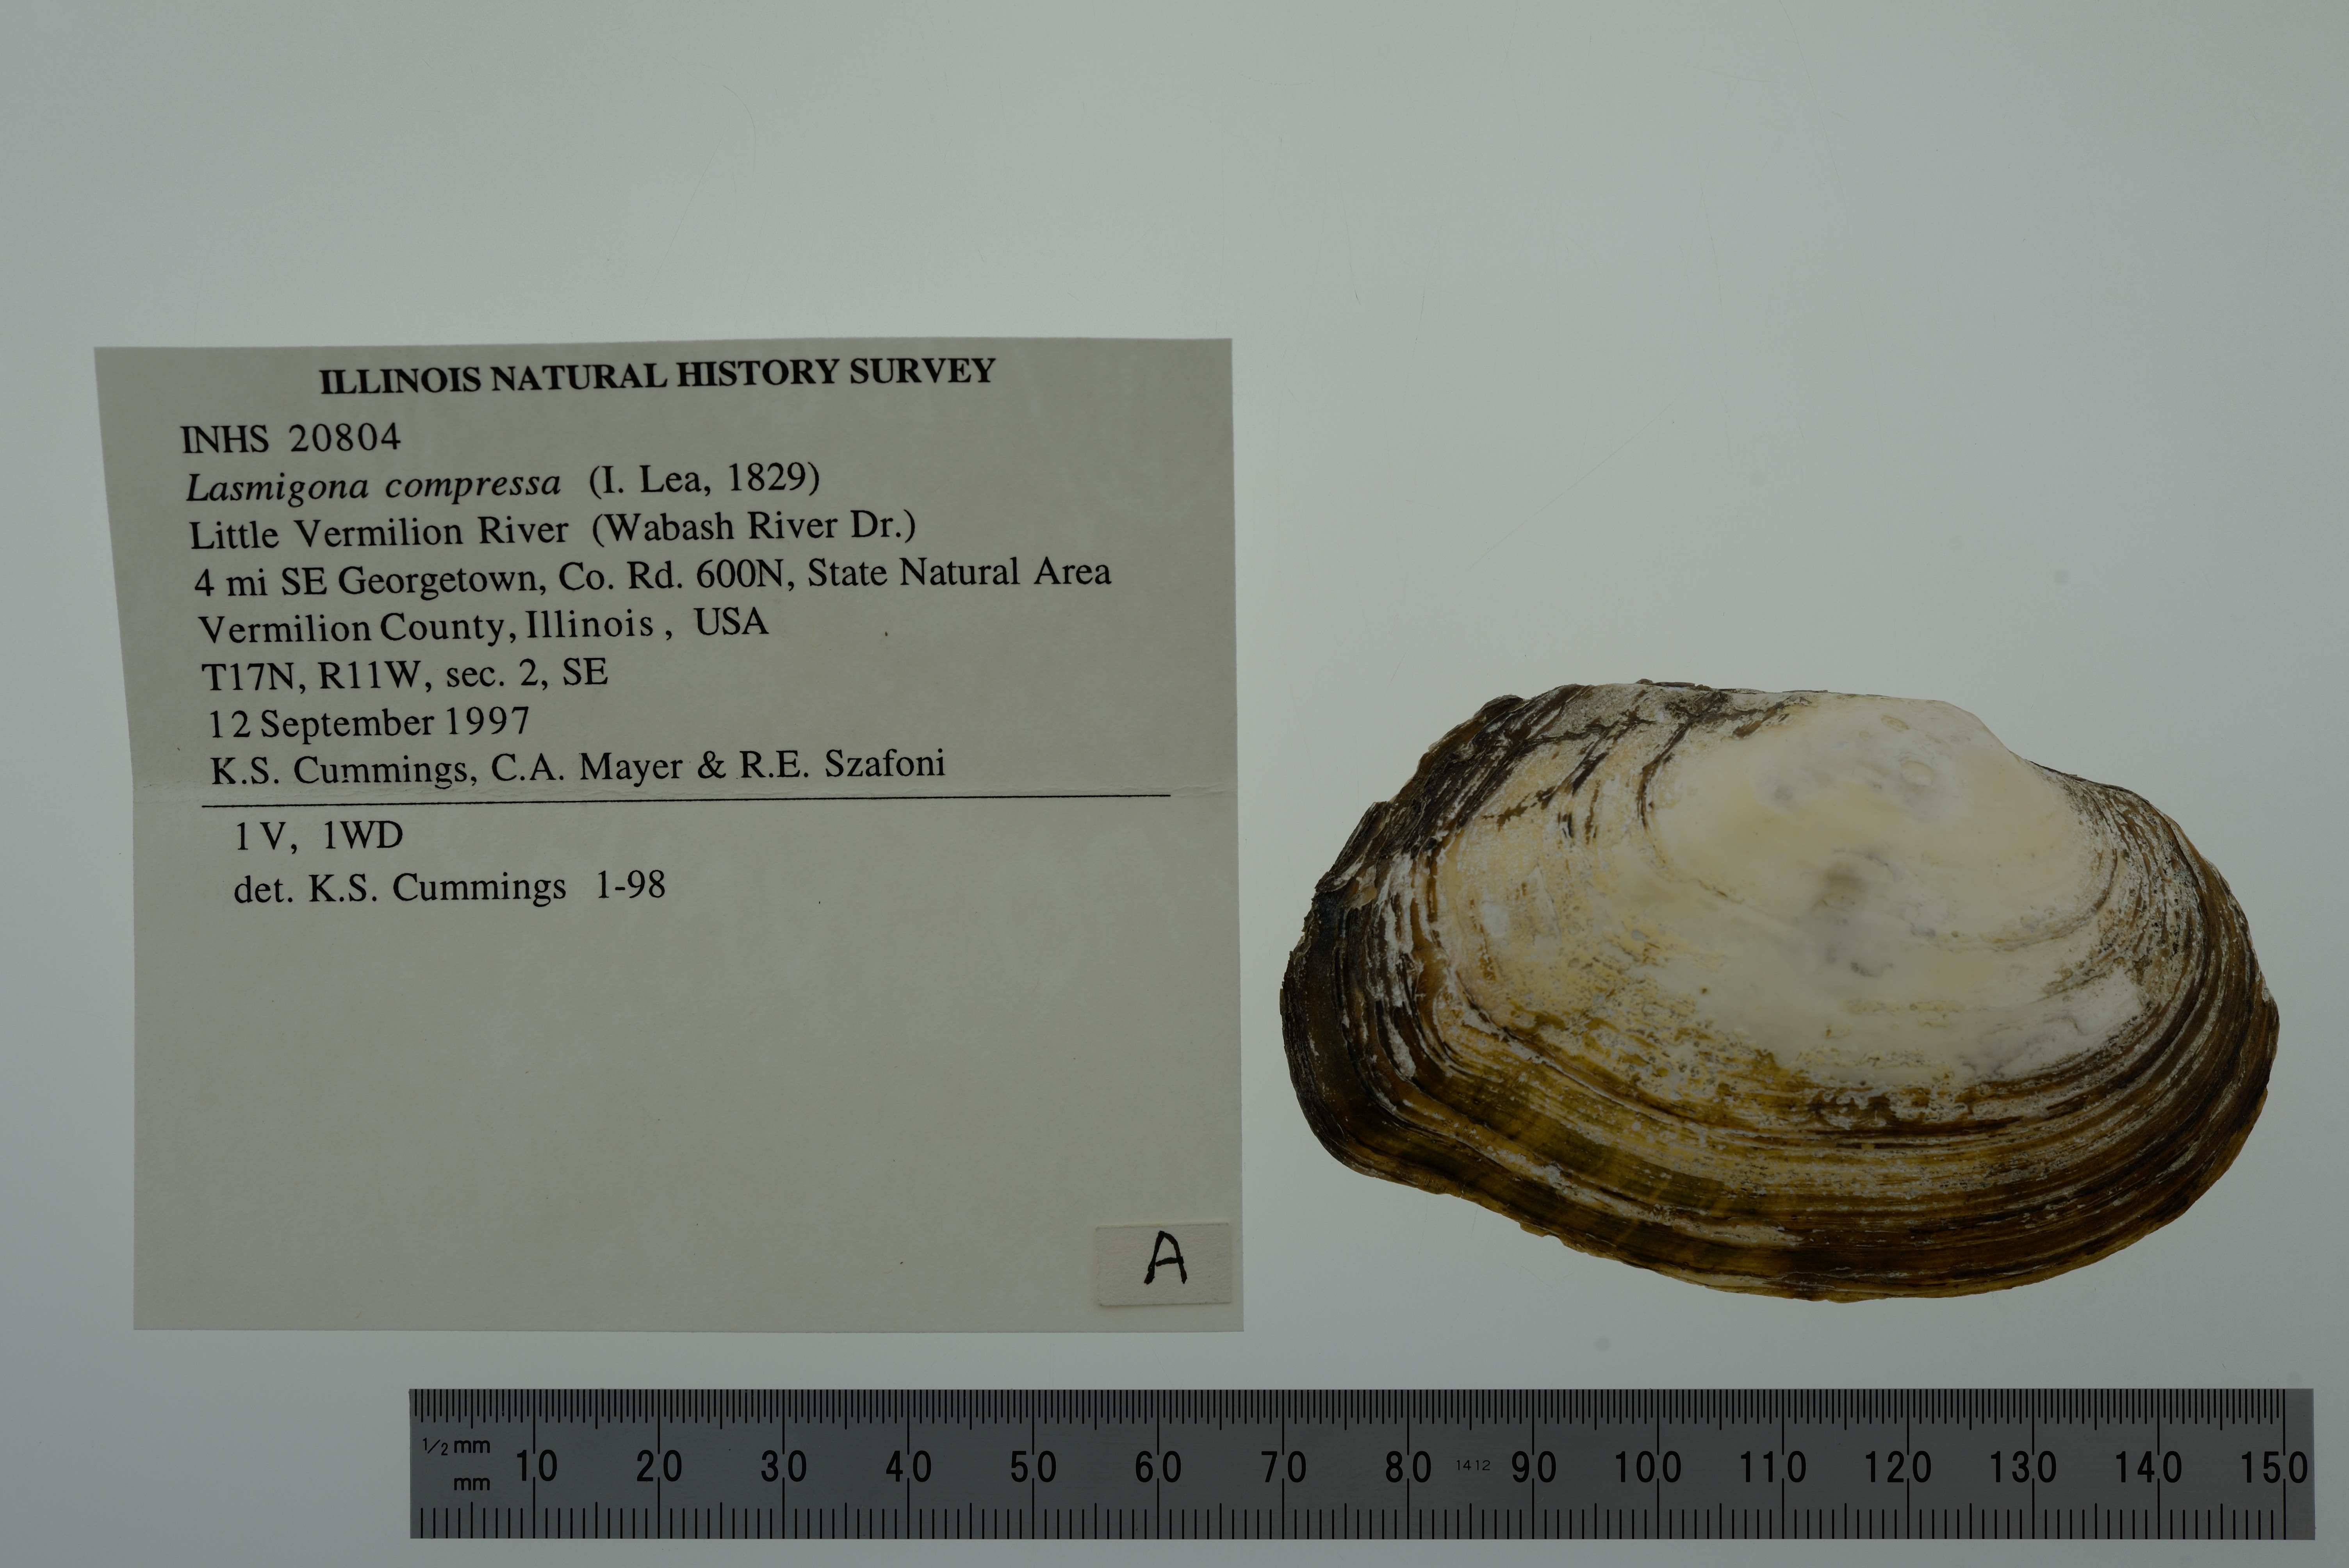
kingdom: Animalia
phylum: Mollusca
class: Bivalvia
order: Unionida
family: Unionidae
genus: Lasmigona
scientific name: Lasmigona compressa
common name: Creek heelsplitter
